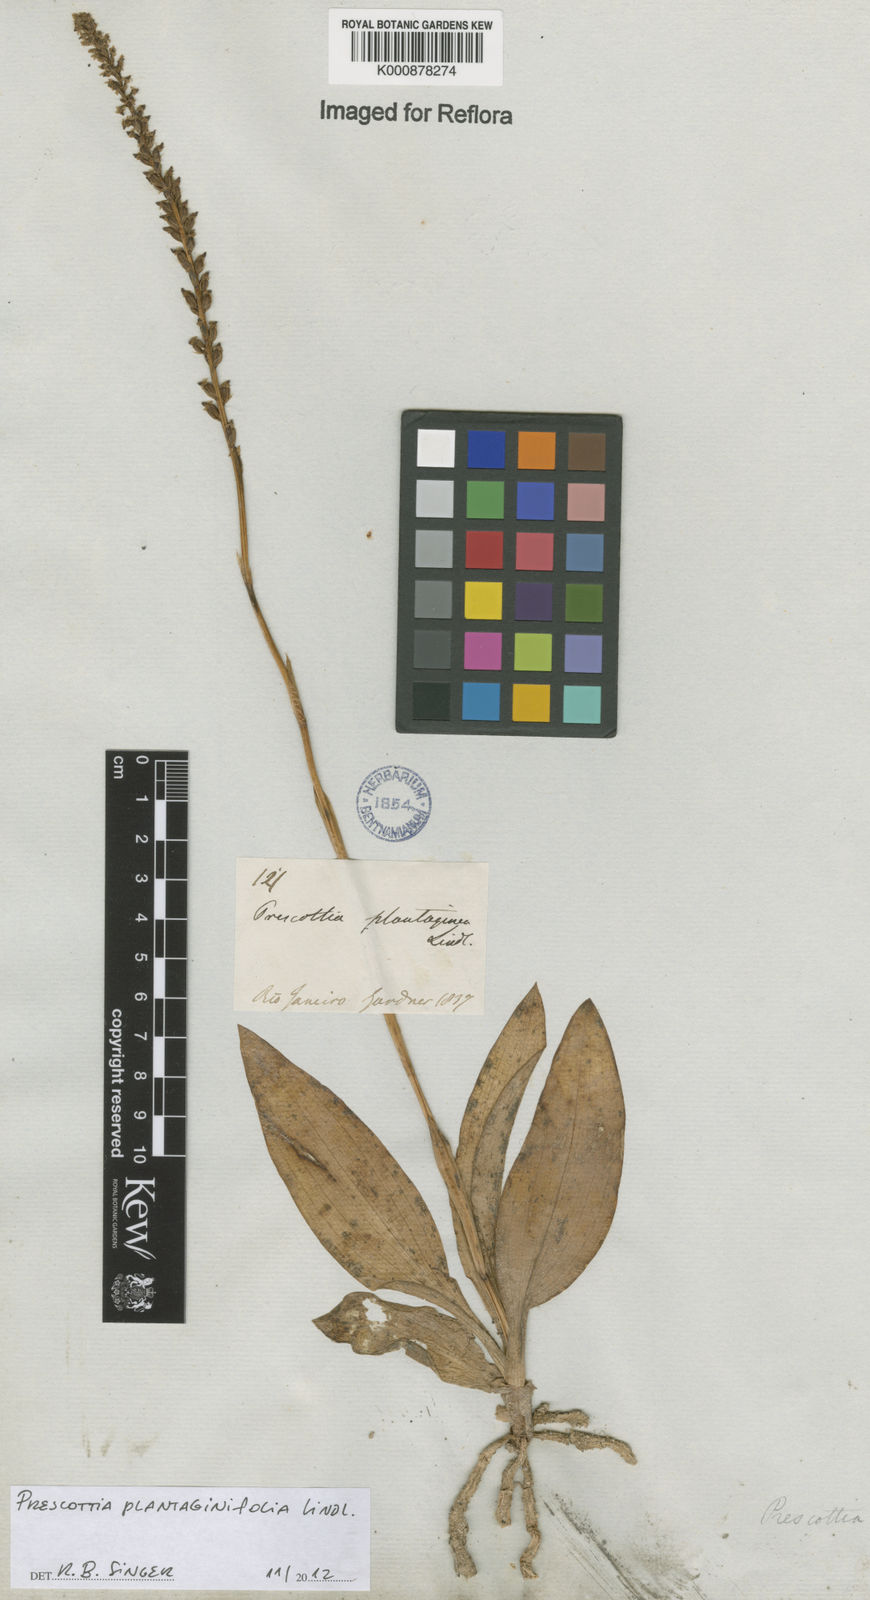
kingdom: Plantae
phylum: Tracheophyta
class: Liliopsida
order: Asparagales
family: Orchidaceae
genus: Prescottia
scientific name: Prescottia plantaginifolia
